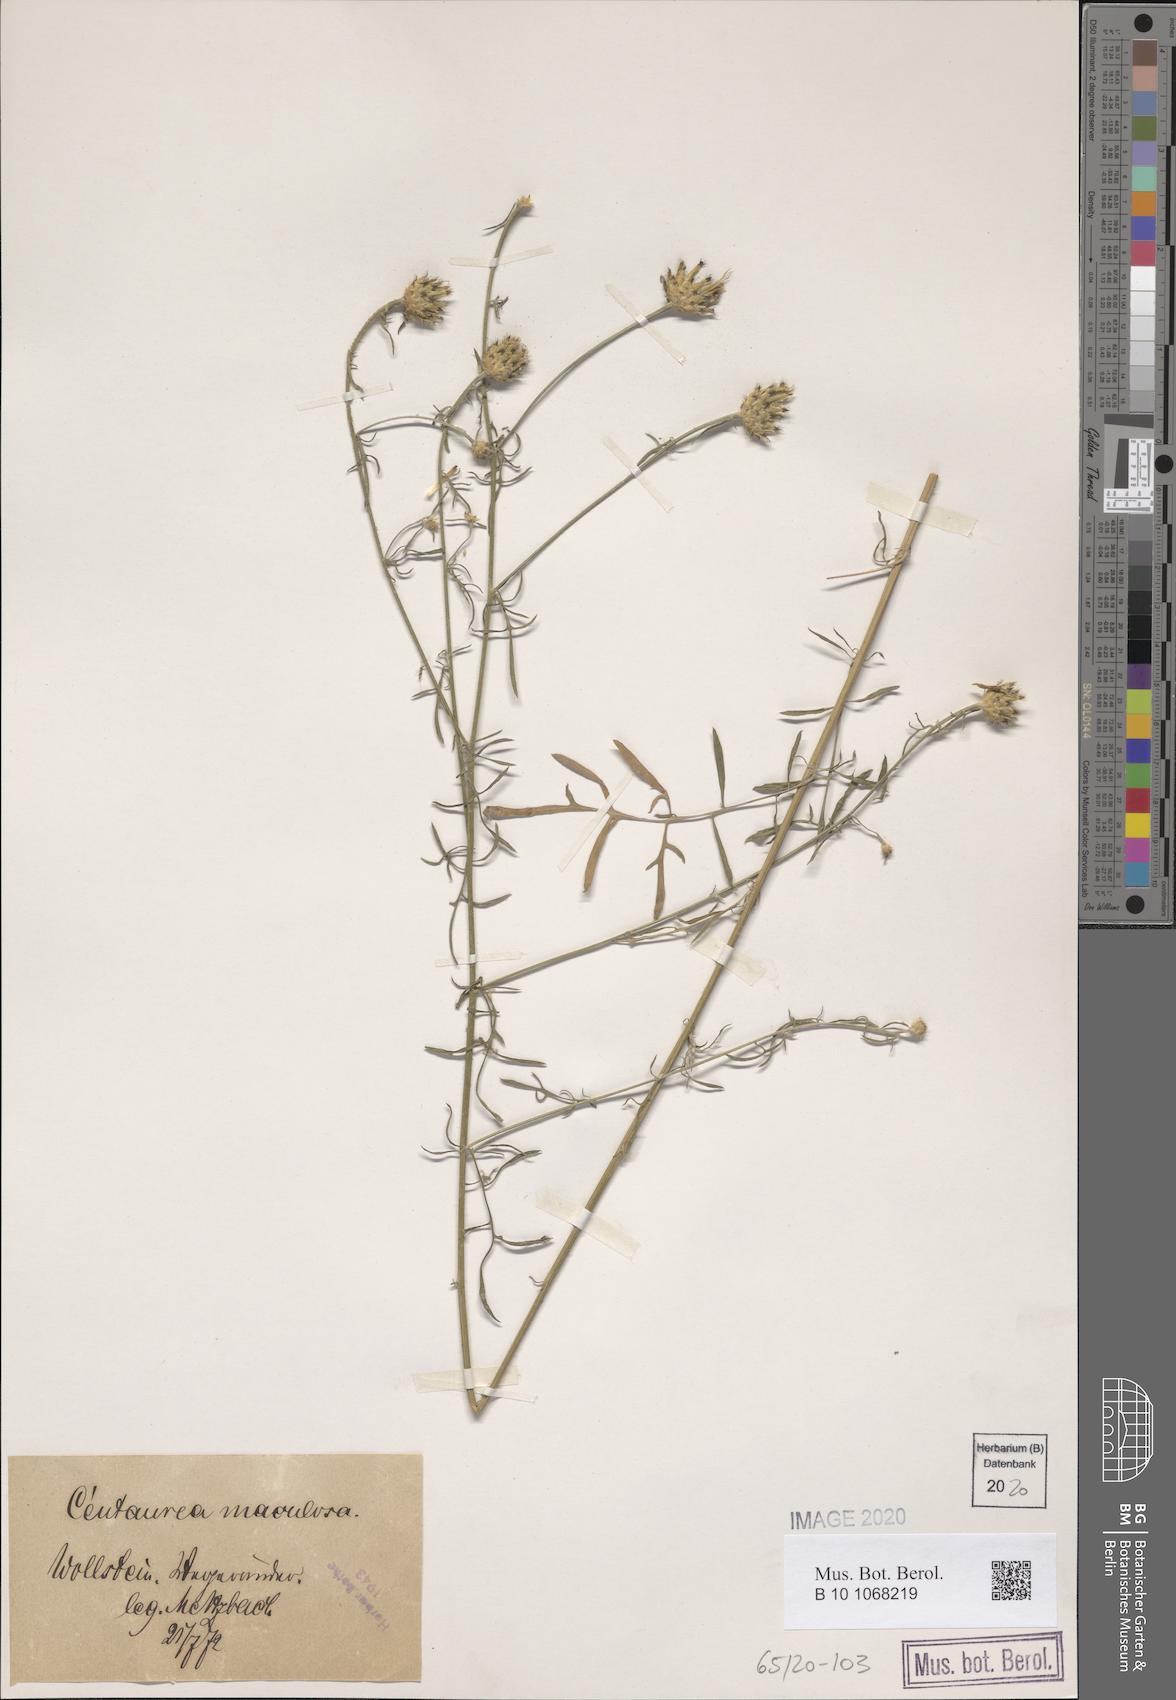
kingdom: Plantae
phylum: Tracheophyta
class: Magnoliopsida
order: Asterales
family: Asteraceae
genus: Centaurea
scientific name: Centaurea stoebe
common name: Spotted knapweed
